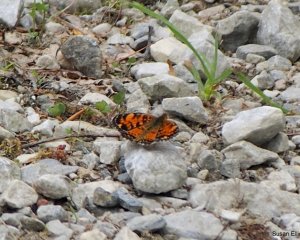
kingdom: Animalia
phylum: Arthropoda
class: Insecta
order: Lepidoptera
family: Nymphalidae
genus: Phyciodes
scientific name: Phyciodes
